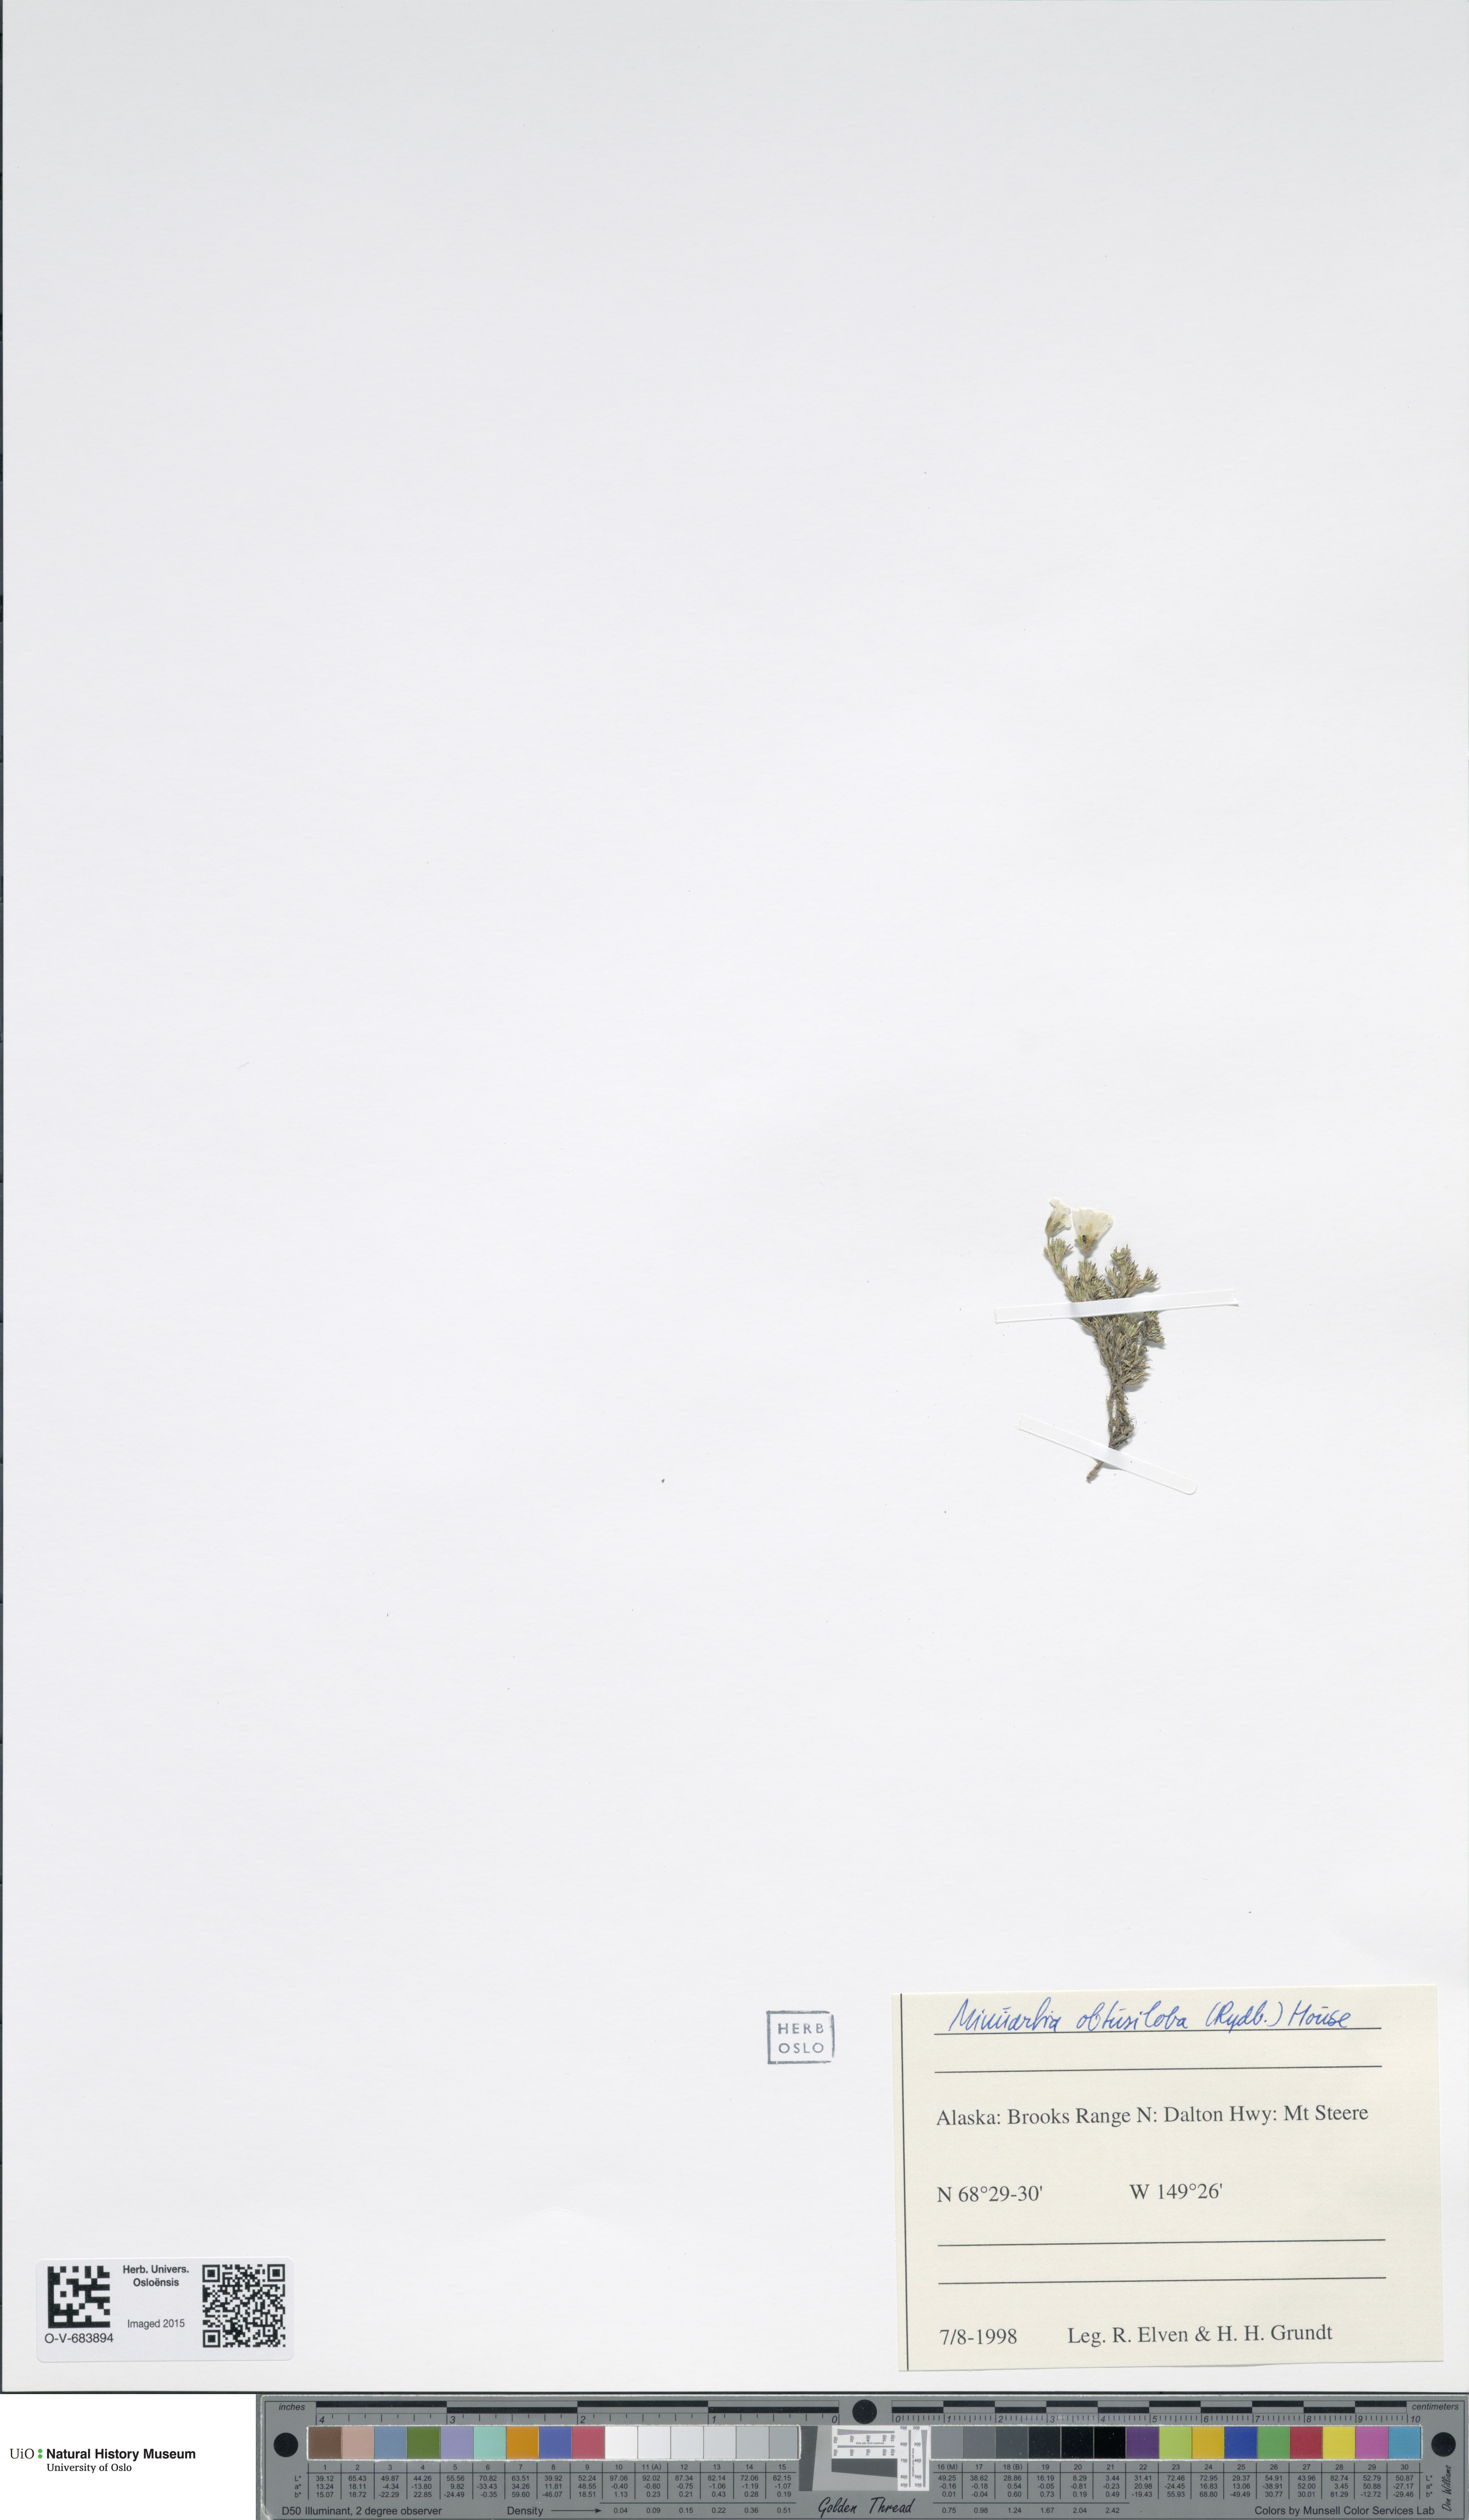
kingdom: Plantae
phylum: Tracheophyta
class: Magnoliopsida
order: Caryophyllales
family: Caryophyllaceae
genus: Cherleria
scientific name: Cherleria obtusiloba
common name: Alpine stitchwort
